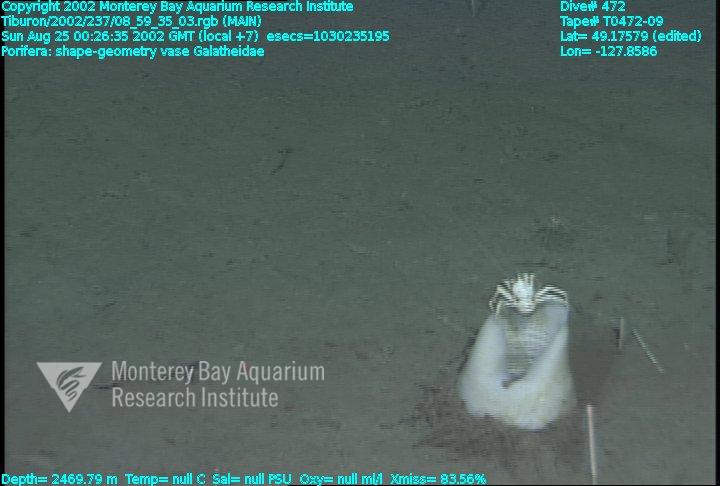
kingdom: Animalia
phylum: Porifera
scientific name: Porifera
